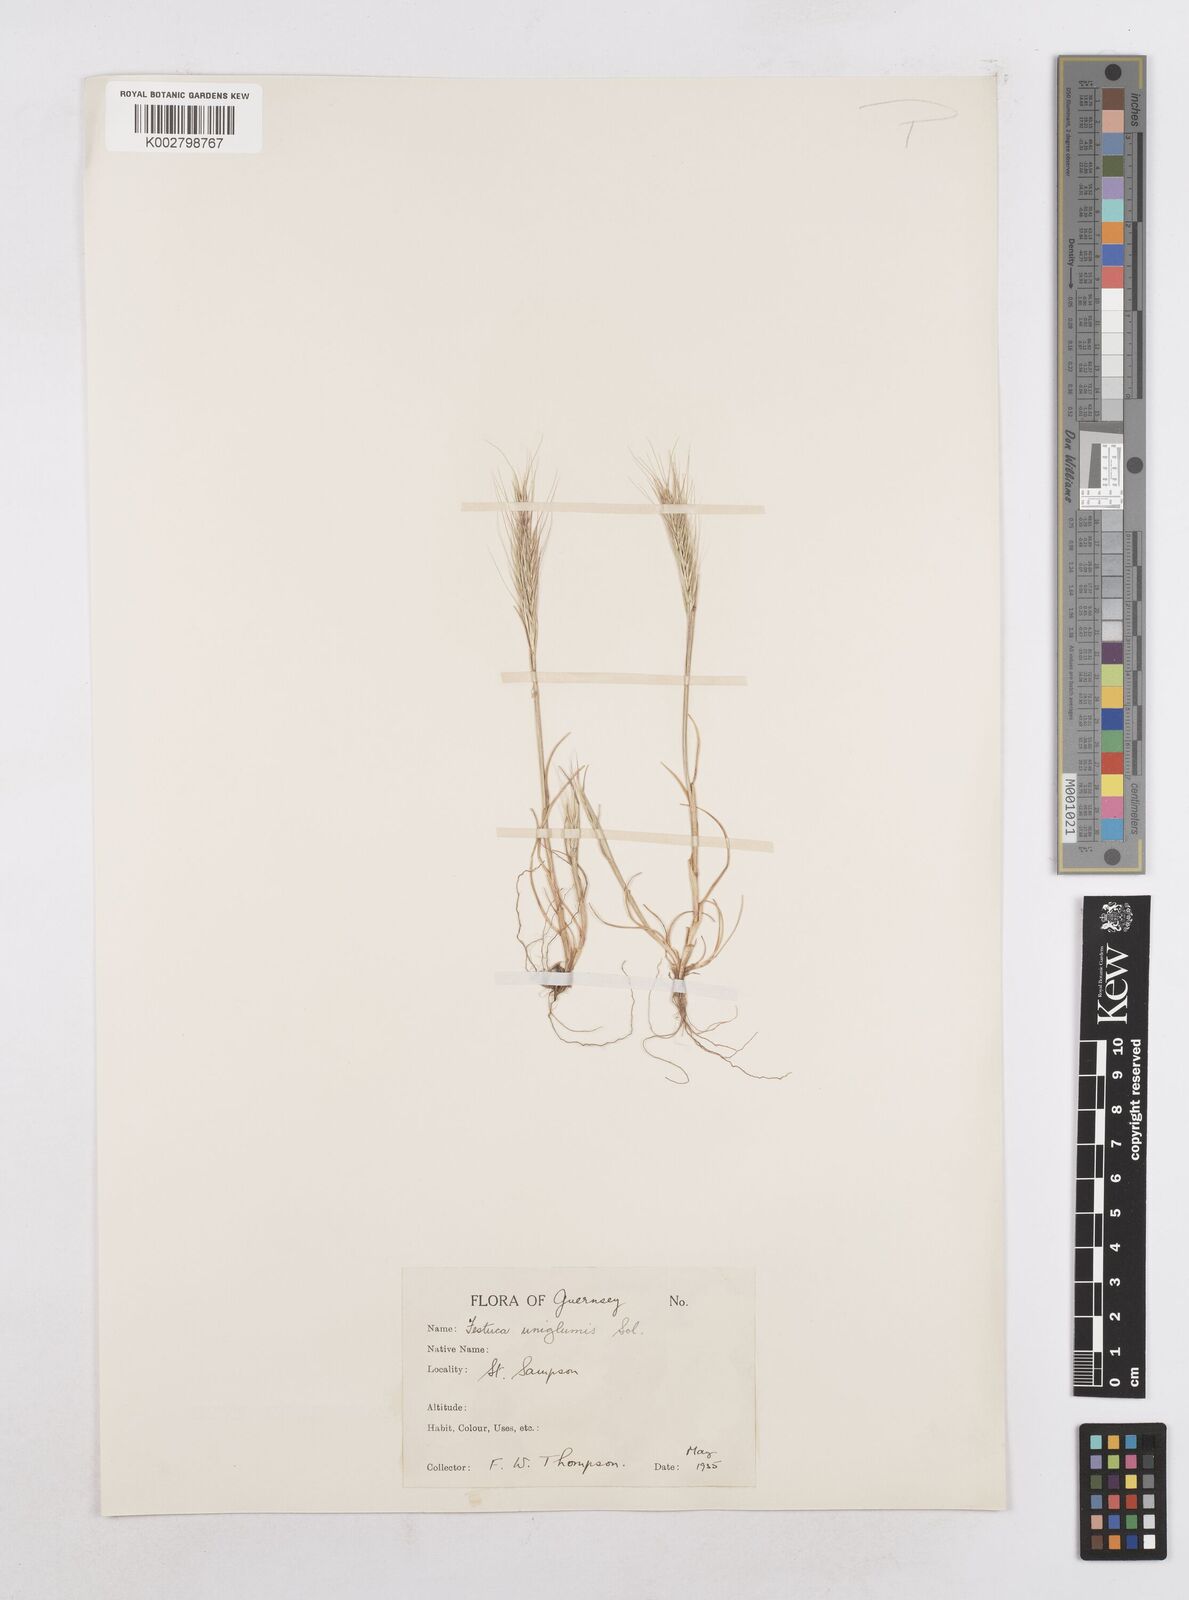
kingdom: Plantae
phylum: Tracheophyta
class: Liliopsida
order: Poales
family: Poaceae
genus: Festuca
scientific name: Festuca fasciculata
